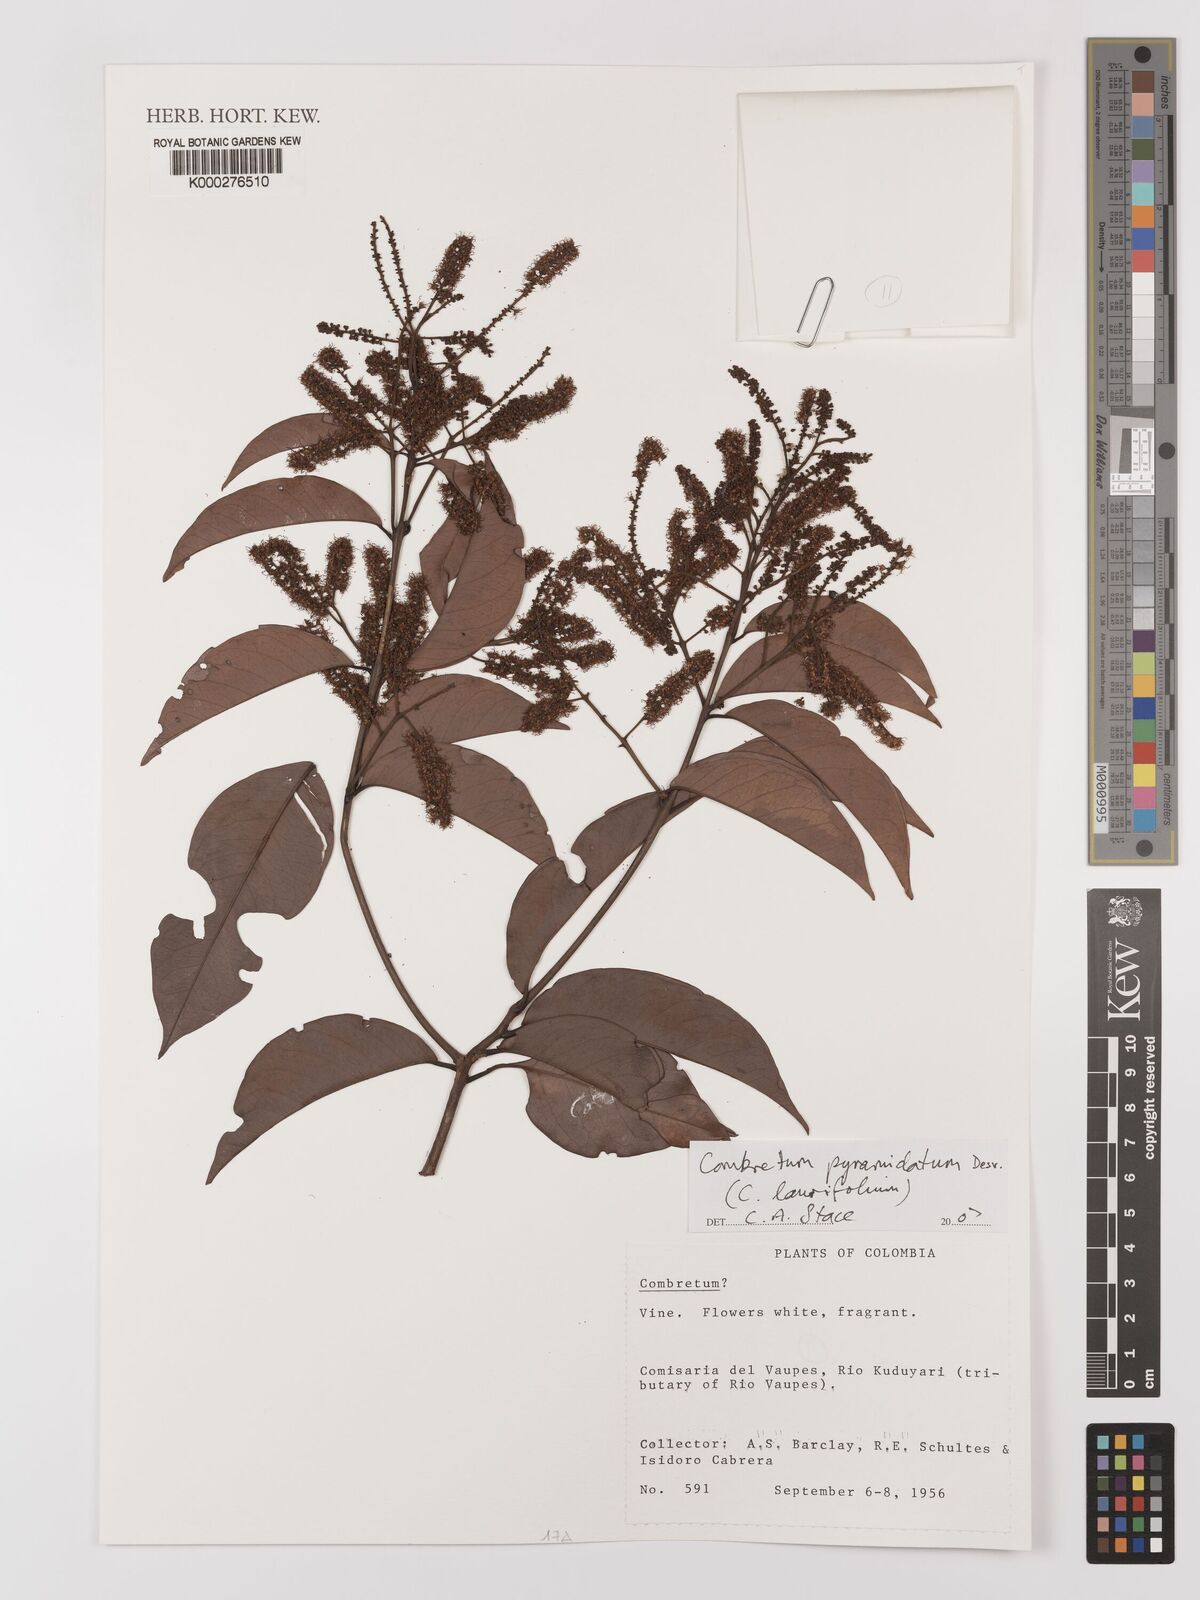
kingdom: Plantae
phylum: Tracheophyta
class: Magnoliopsida
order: Myrtales
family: Combretaceae
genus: Combretum
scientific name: Combretum pyramidatum
